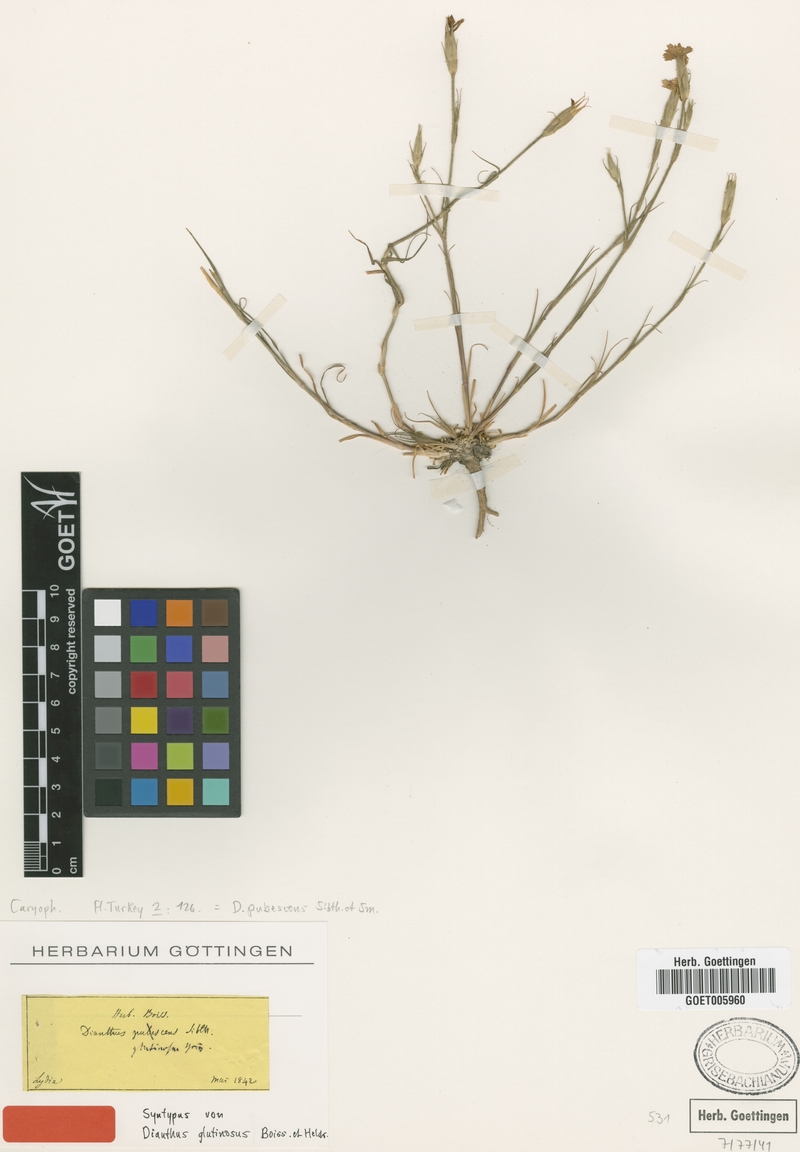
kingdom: Plantae
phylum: Tracheophyta
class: Magnoliopsida
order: Caryophyllales
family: Caryophyllaceae
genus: Dianthus
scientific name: Dianthus diffusus
